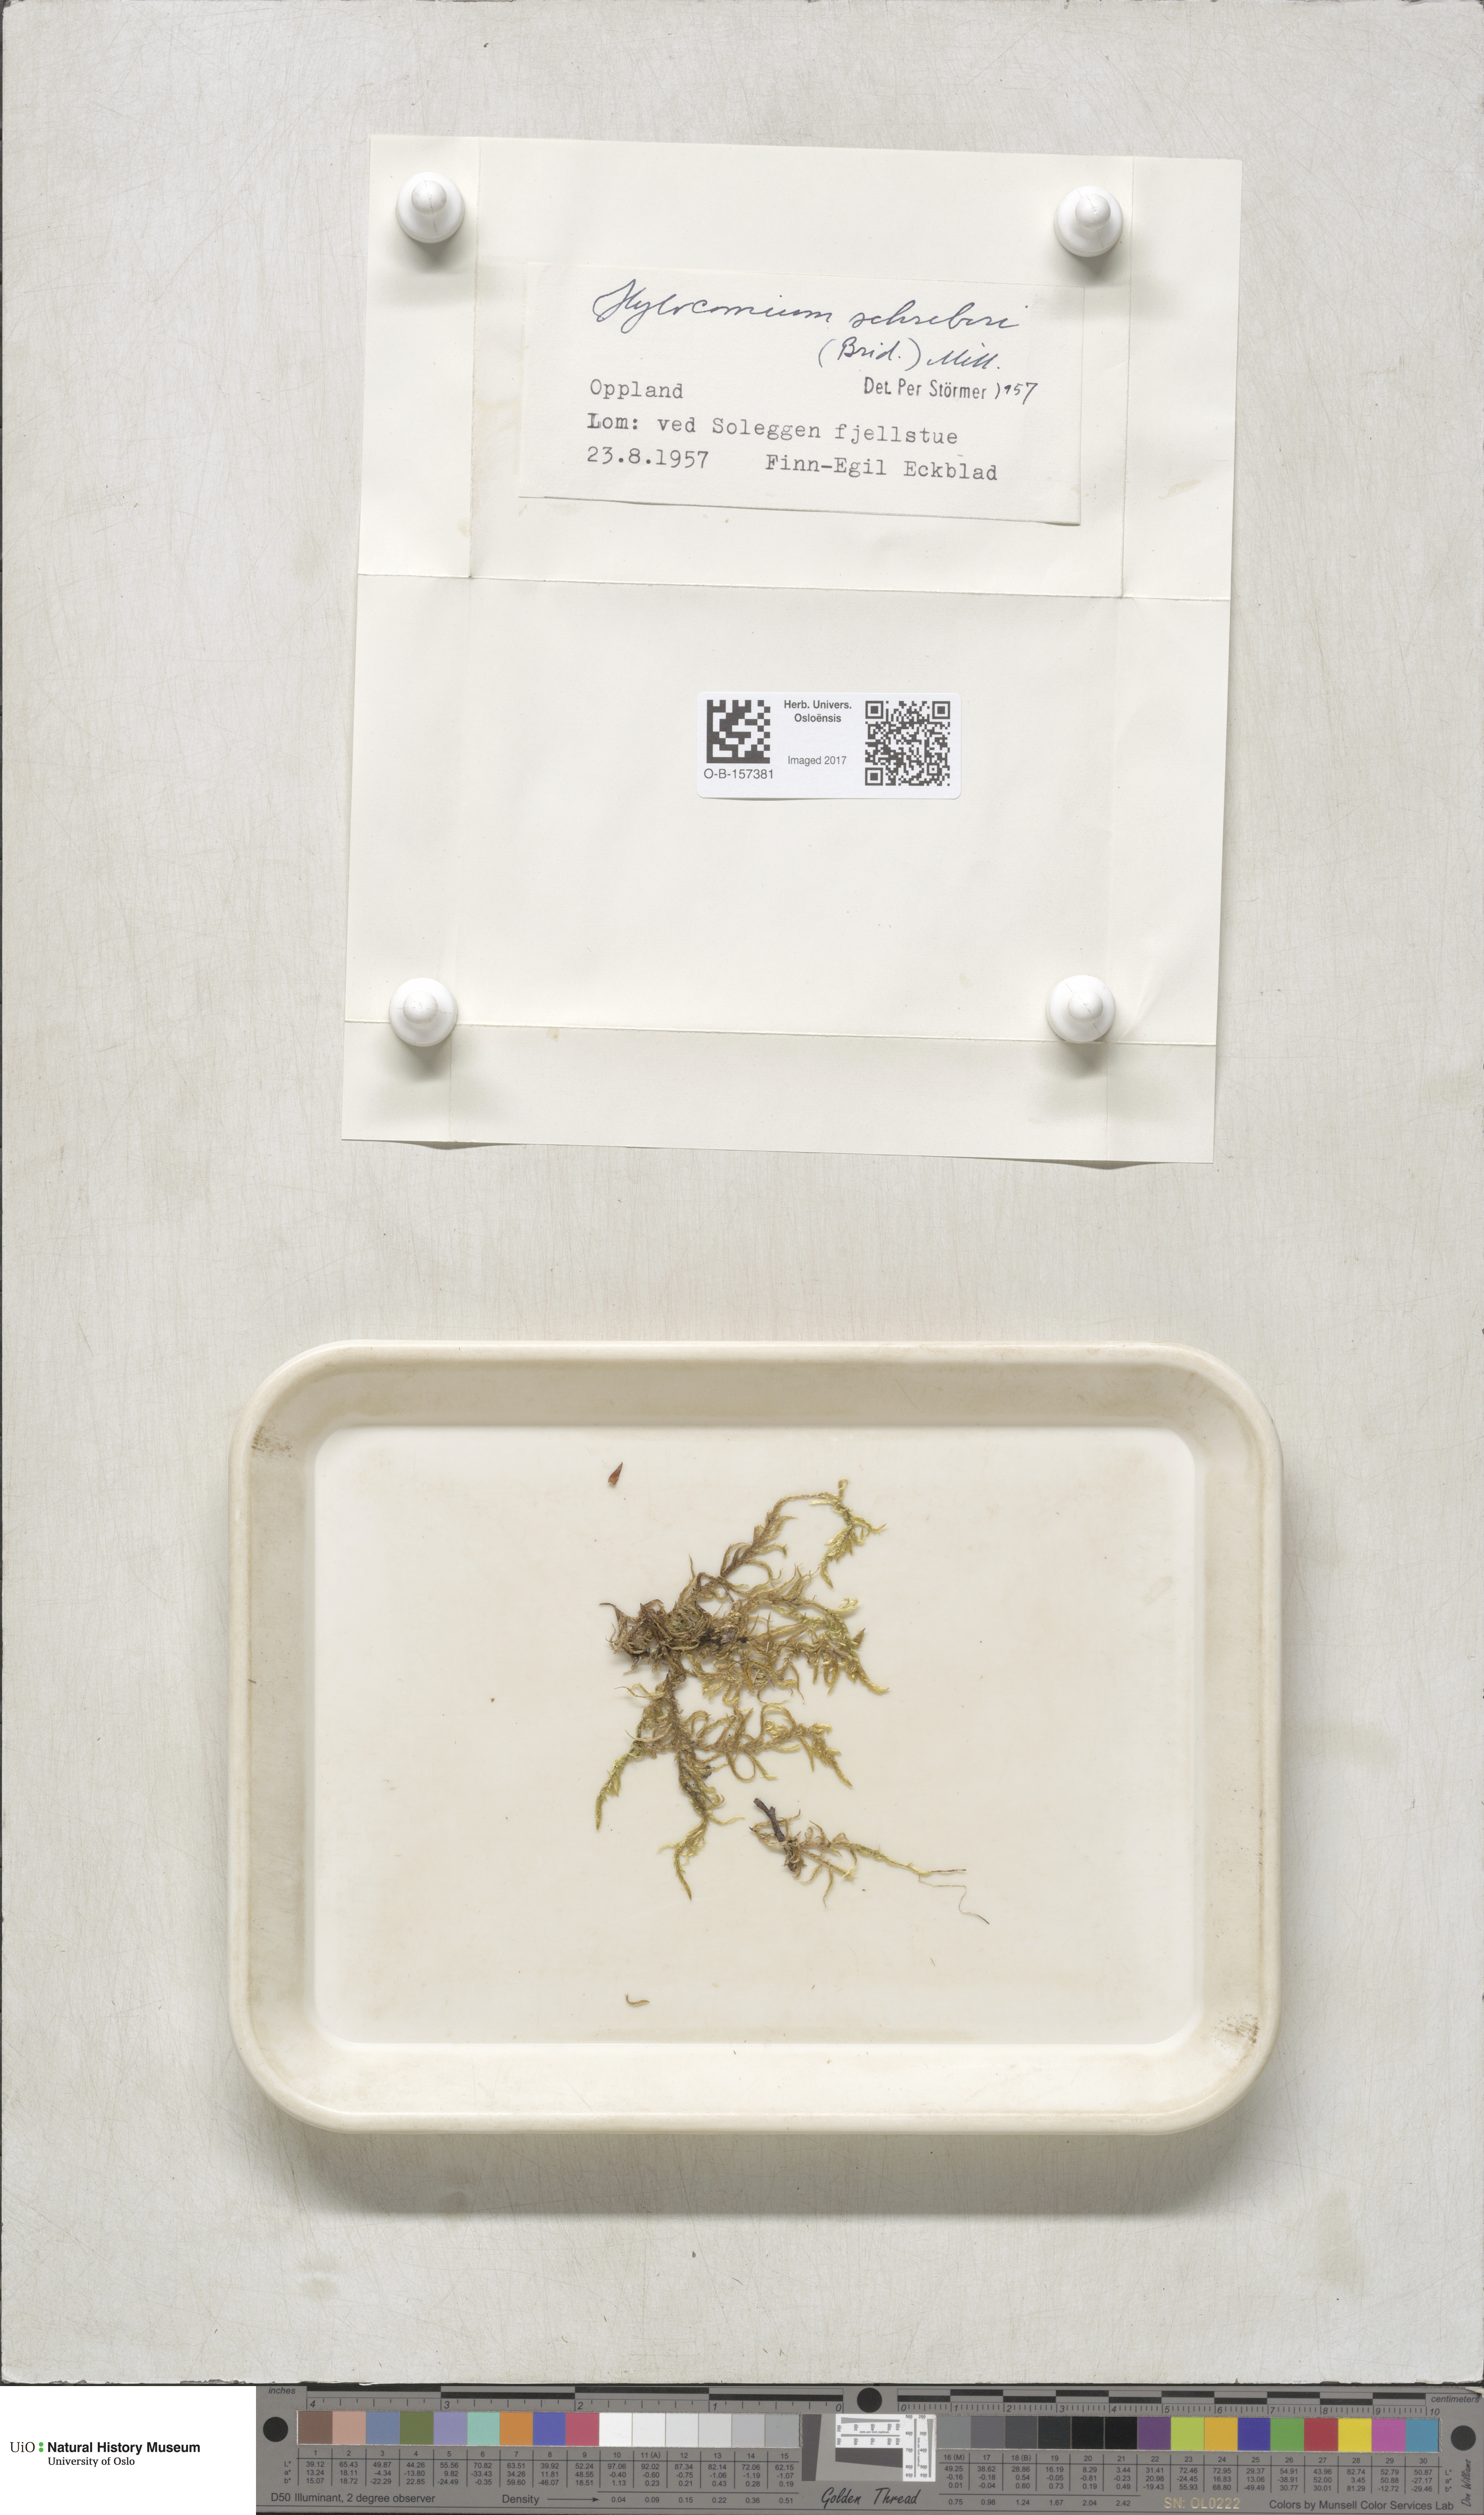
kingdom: Plantae
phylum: Bryophyta
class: Bryopsida
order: Hypnales
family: Hylocomiaceae
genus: Pleurozium
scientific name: Pleurozium schreberi
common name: Red-stemmed feather moss
